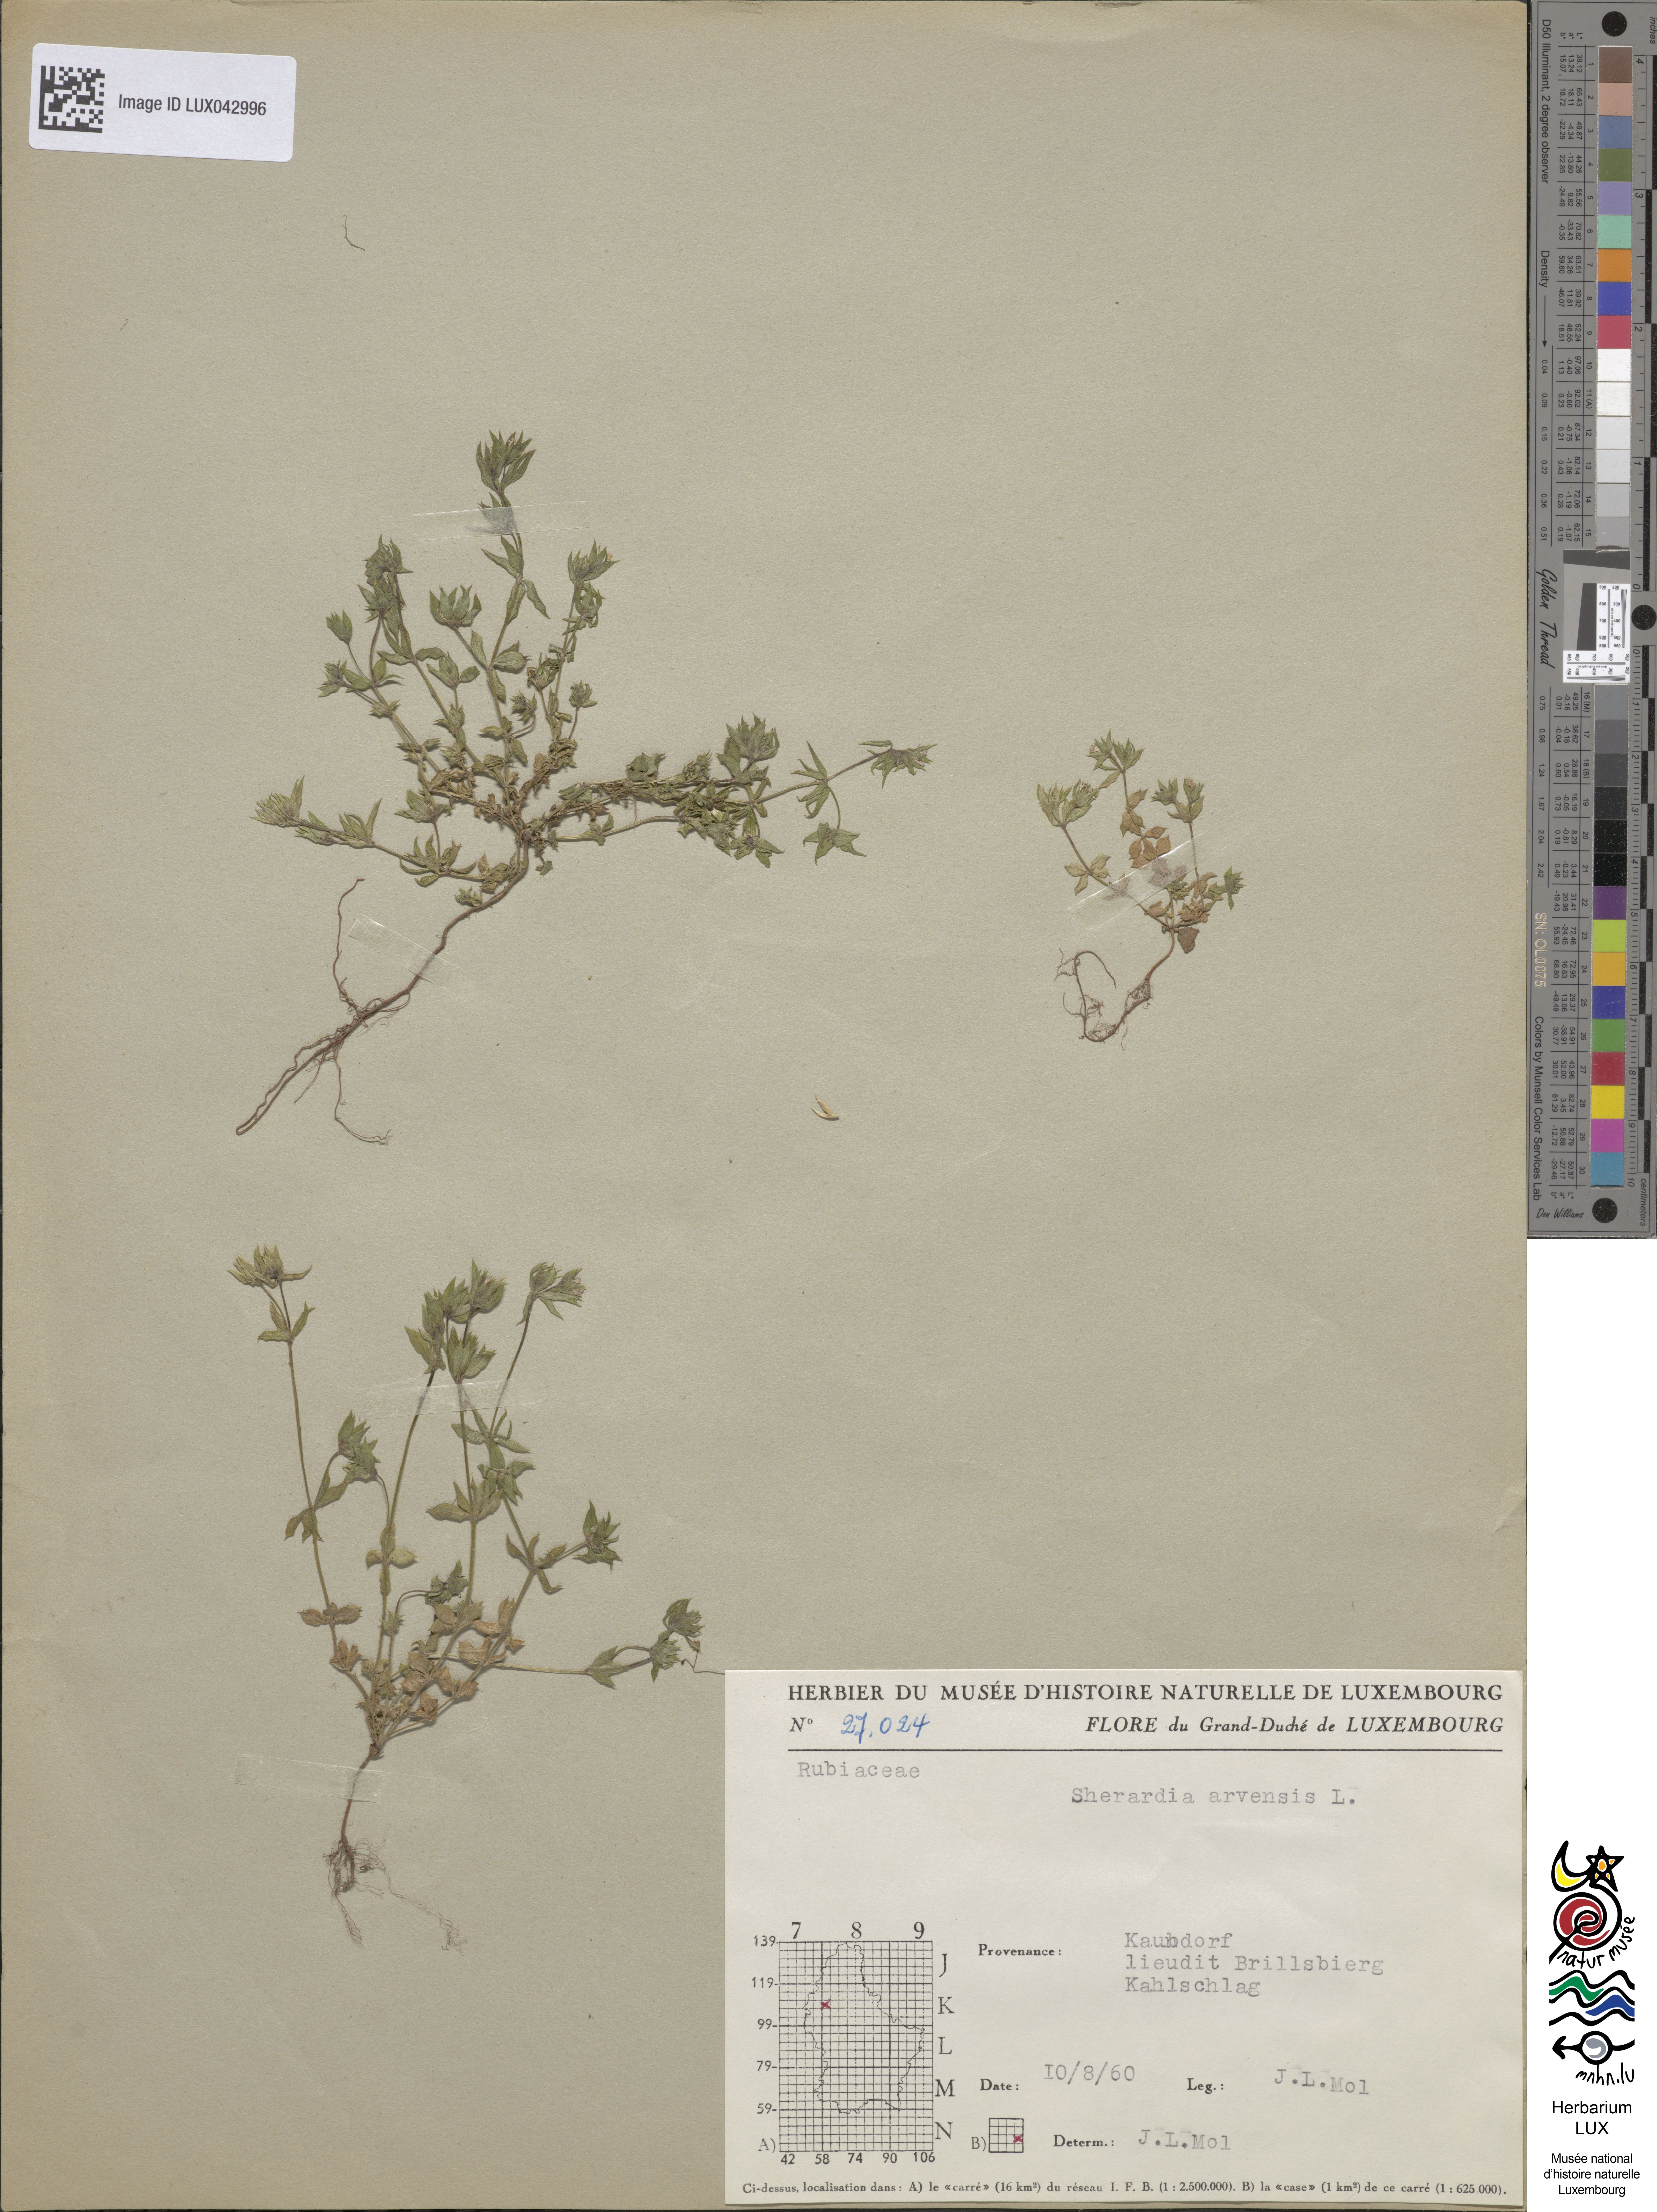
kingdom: Plantae
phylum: Tracheophyta
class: Magnoliopsida
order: Gentianales
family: Rubiaceae
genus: Sherardia
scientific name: Sherardia arvensis
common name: Field madder
